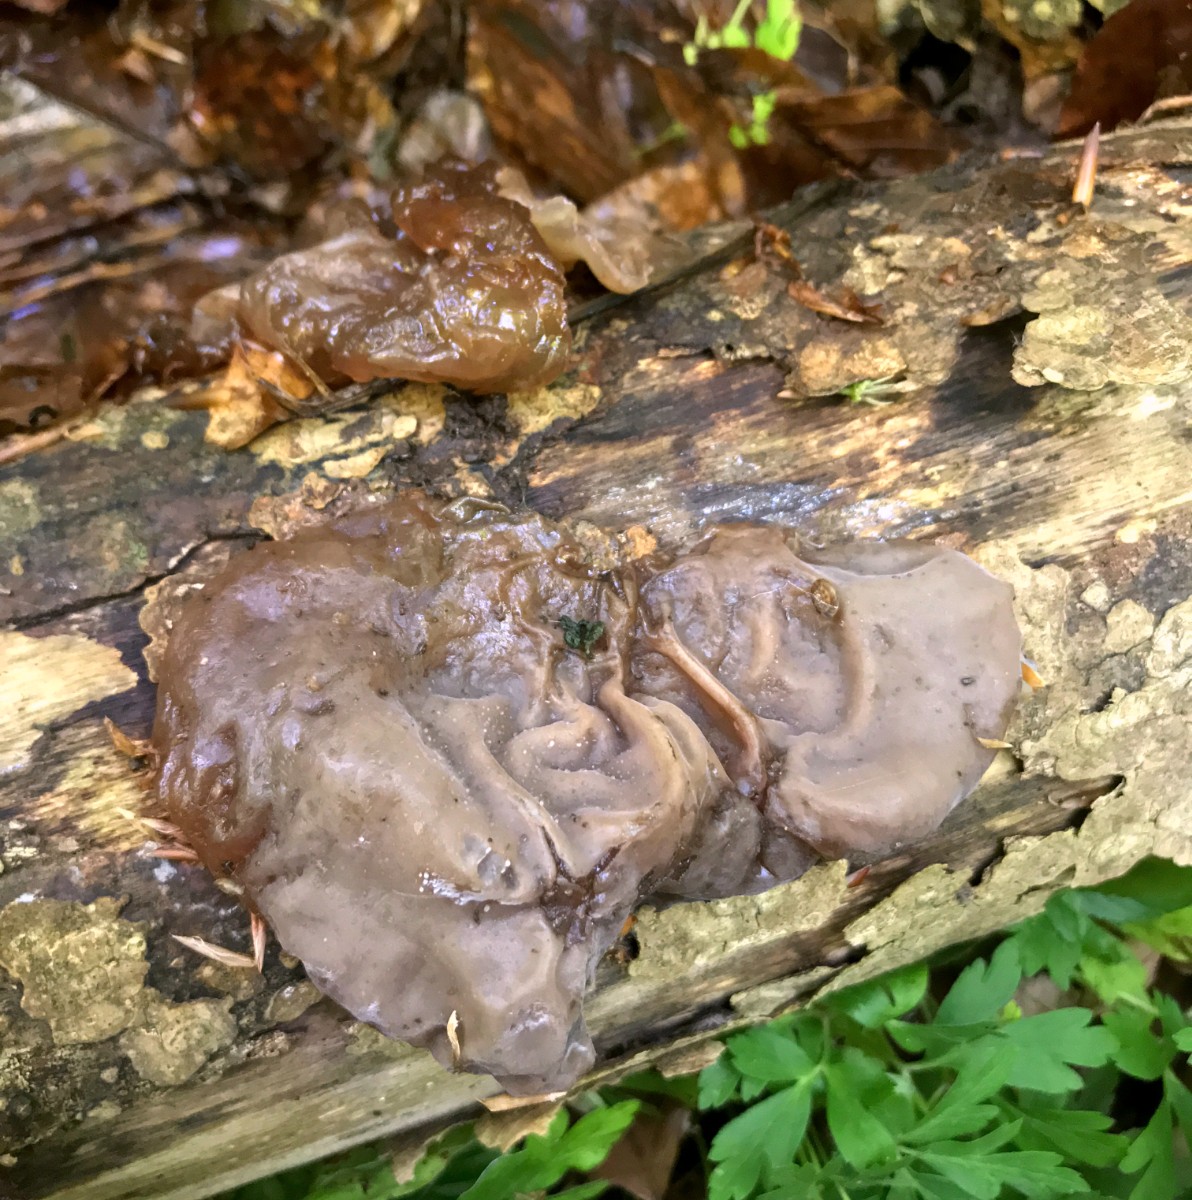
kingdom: Fungi
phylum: Basidiomycota
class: Agaricomycetes
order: Auriculariales
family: Auriculariaceae
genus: Auricularia
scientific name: Auricularia auricula-judae
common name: almindelig judasøre
